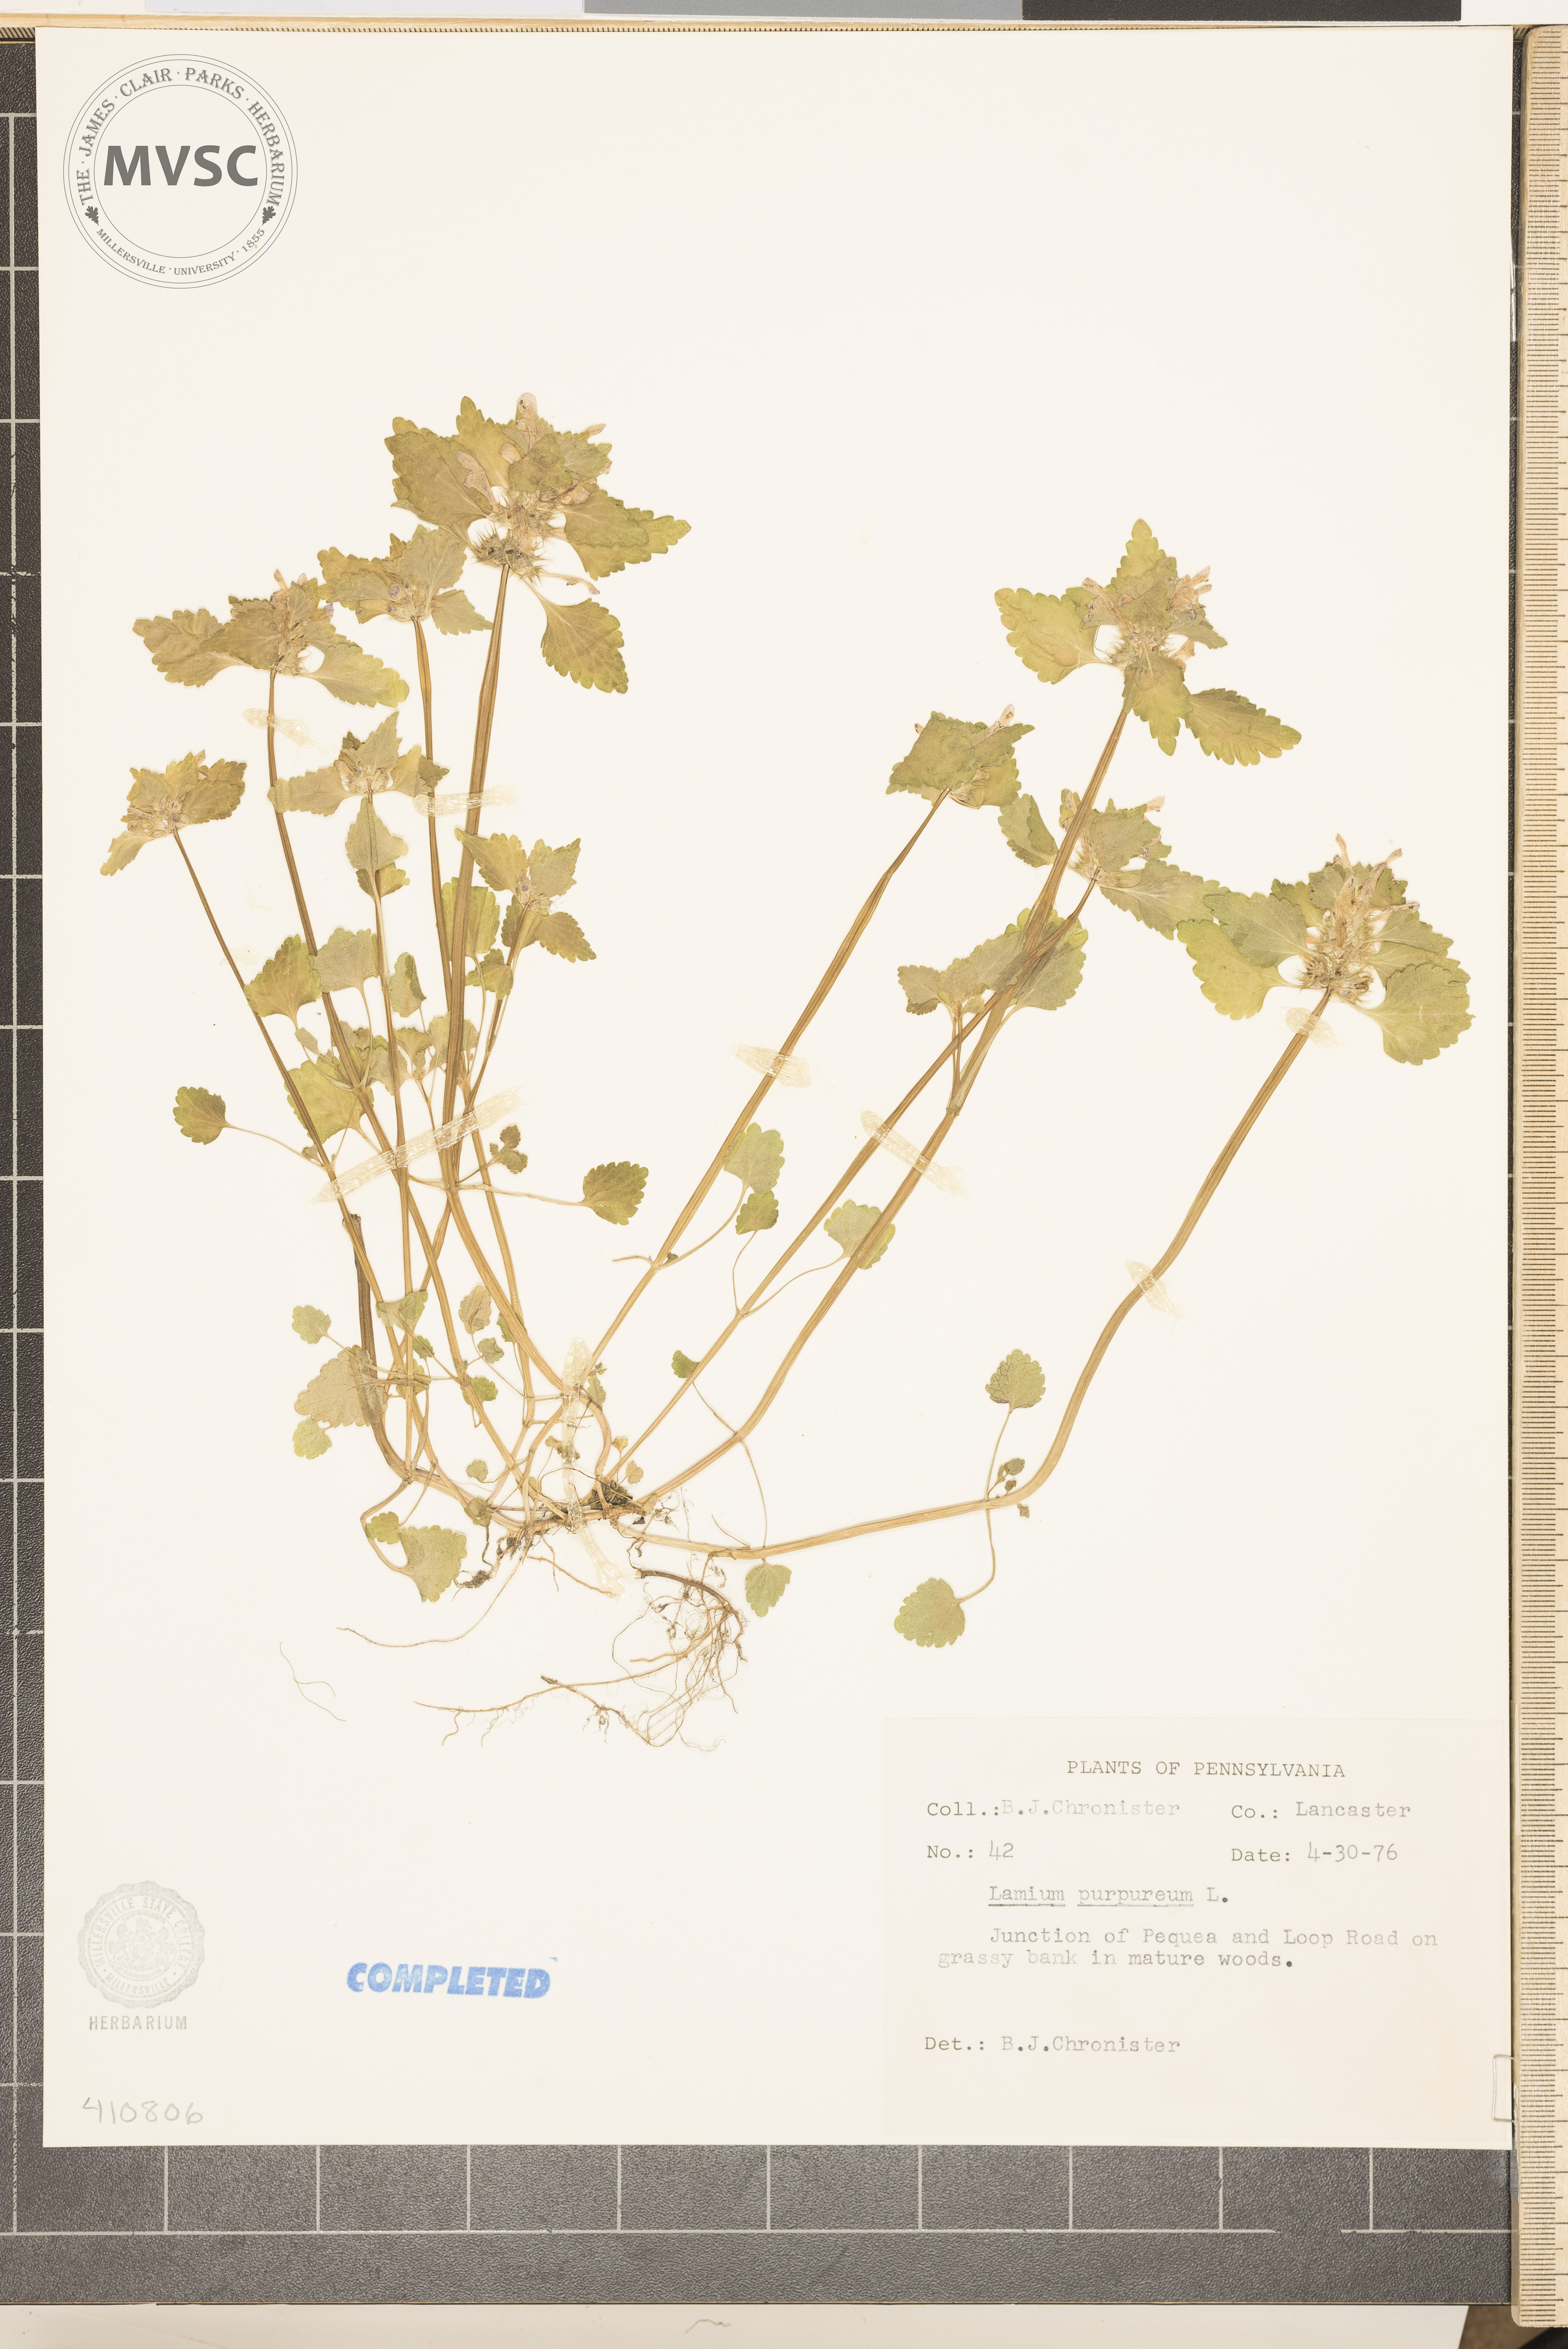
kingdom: Plantae
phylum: Tracheophyta
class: Magnoliopsida
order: Lamiales
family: Lamiaceae
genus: Lamium
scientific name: Lamium purpureum
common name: purple dead-nettle
